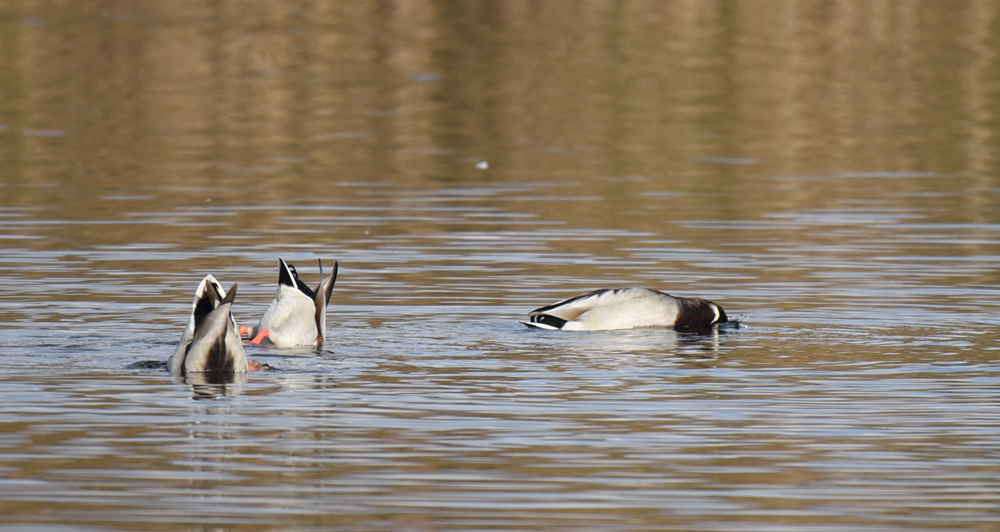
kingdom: Animalia
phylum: Chordata
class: Aves
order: Anseriformes
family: Anatidae
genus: Anas
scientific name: Anas platyrhynchos
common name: Mallard
